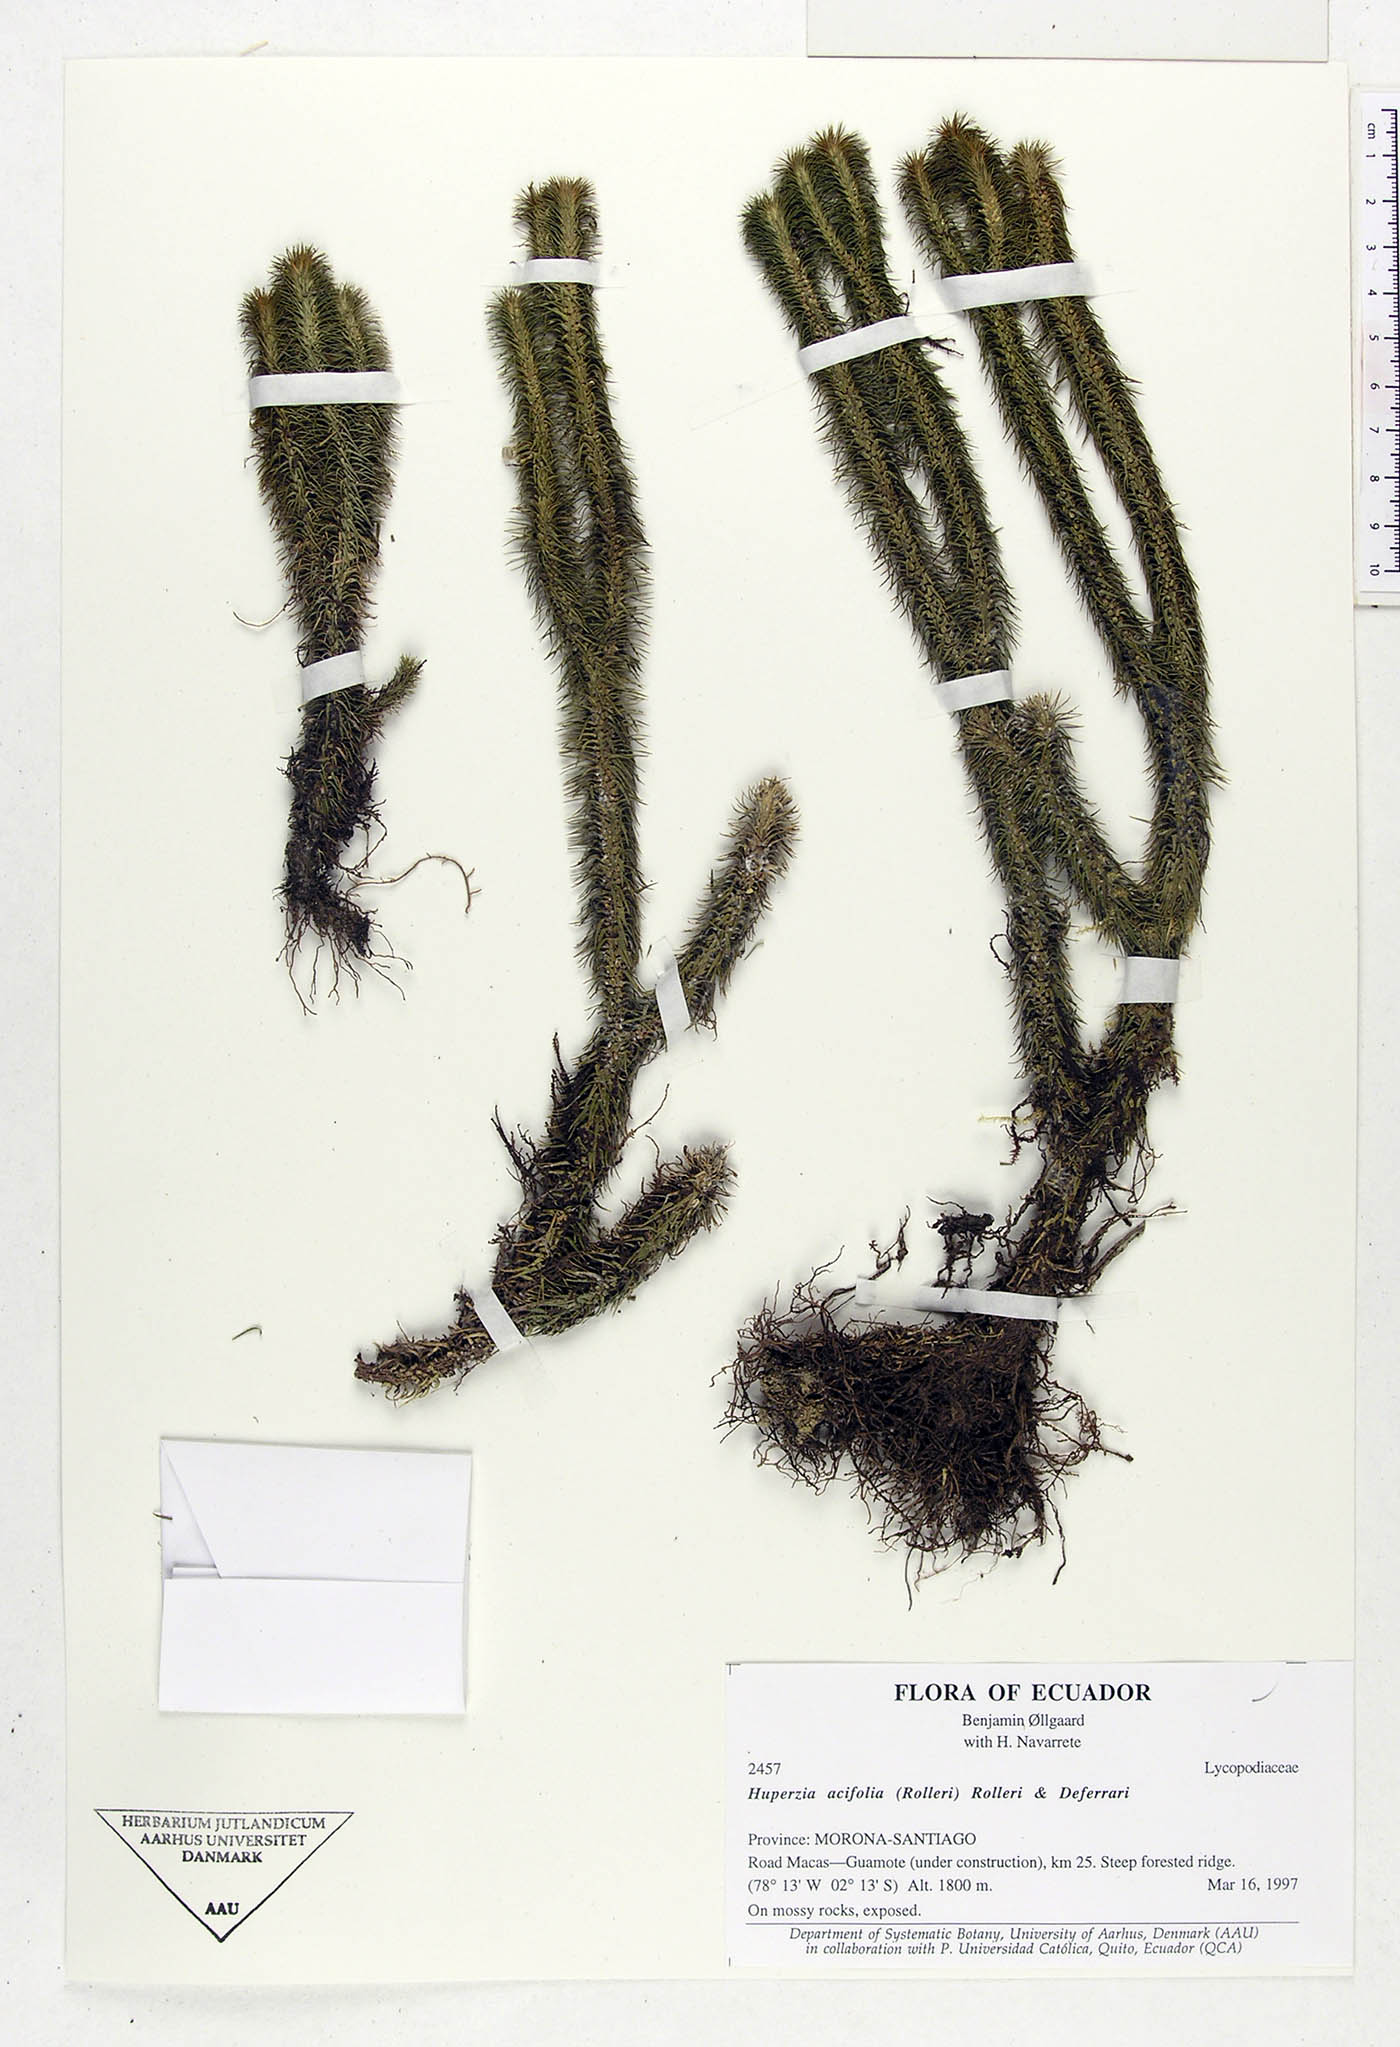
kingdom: Plantae
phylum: Tracheophyta
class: Lycopodiopsida
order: Lycopodiales
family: Lycopodiaceae
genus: Phlegmariurus
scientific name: Phlegmariurus acifolius
